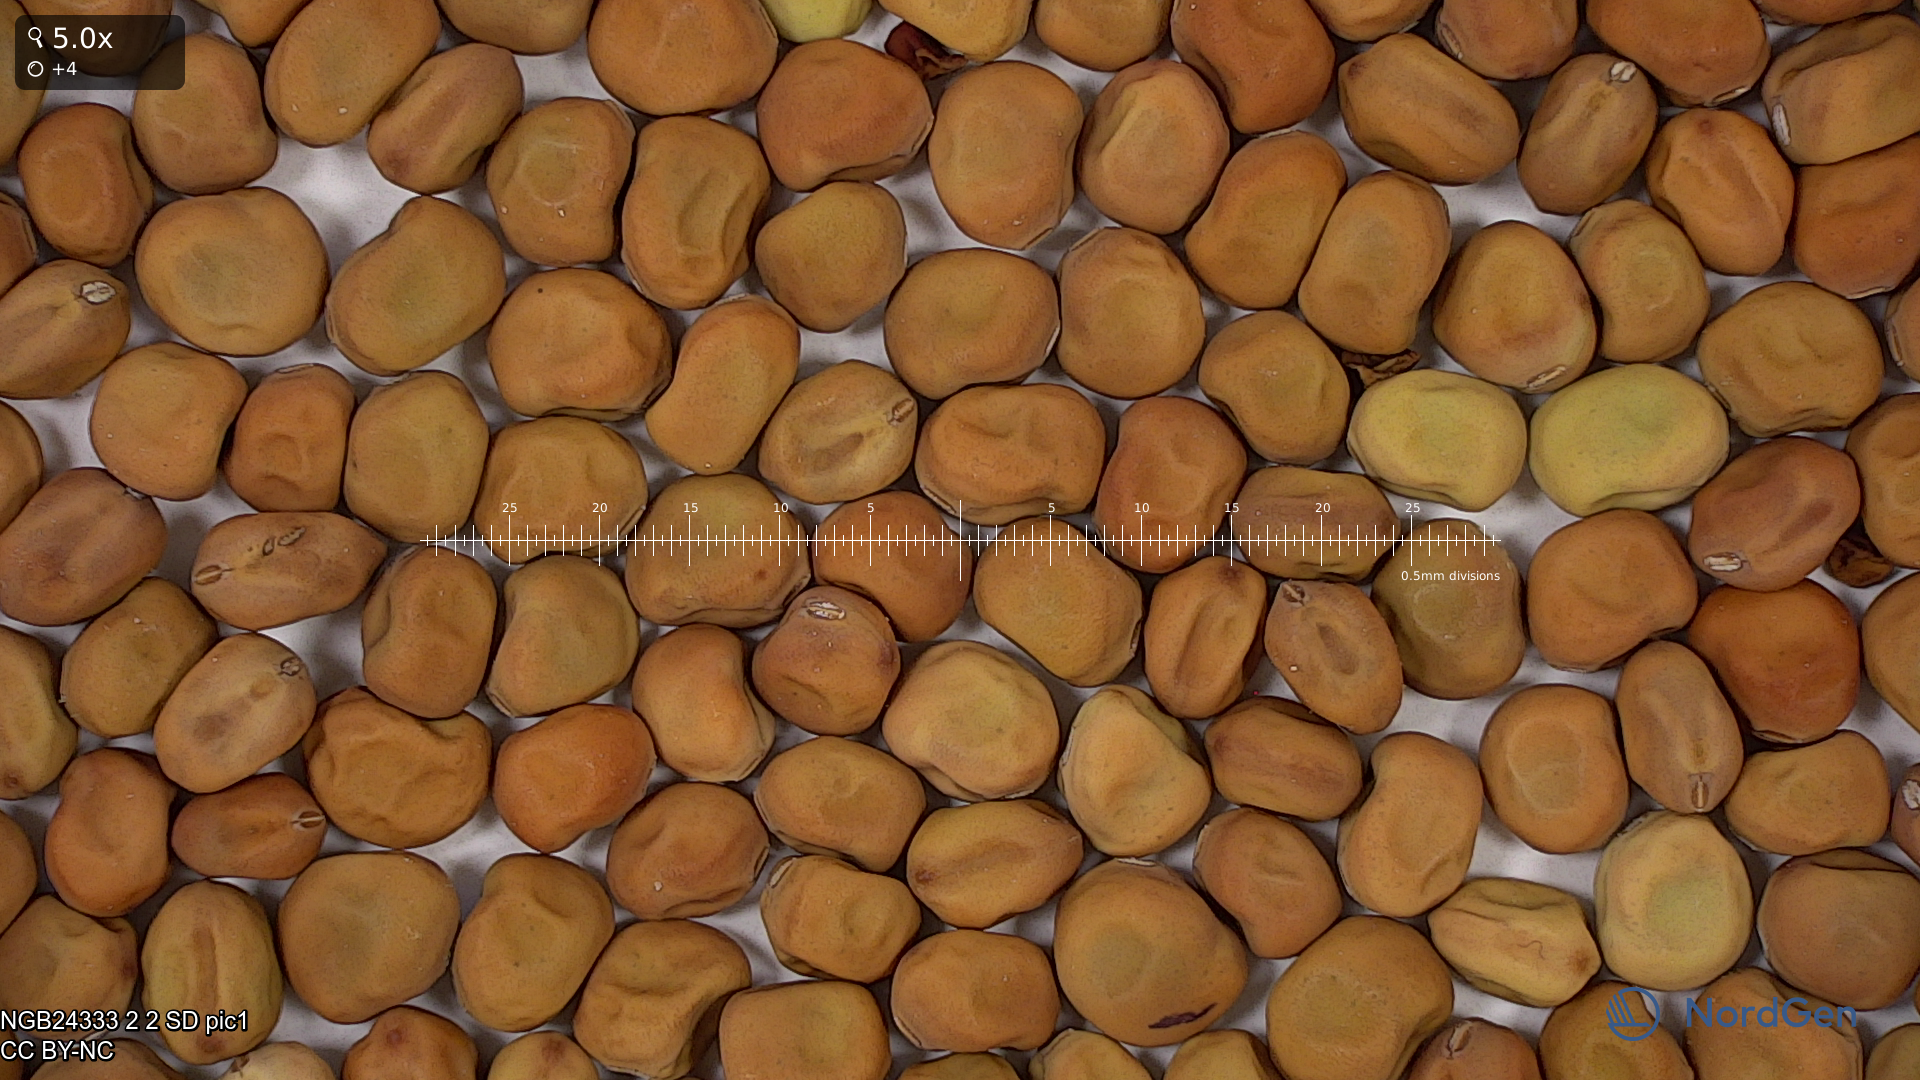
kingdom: Plantae
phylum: Tracheophyta
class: Magnoliopsida
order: Fabales
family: Fabaceae
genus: Lathyrus
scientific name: Lathyrus oleraceus
